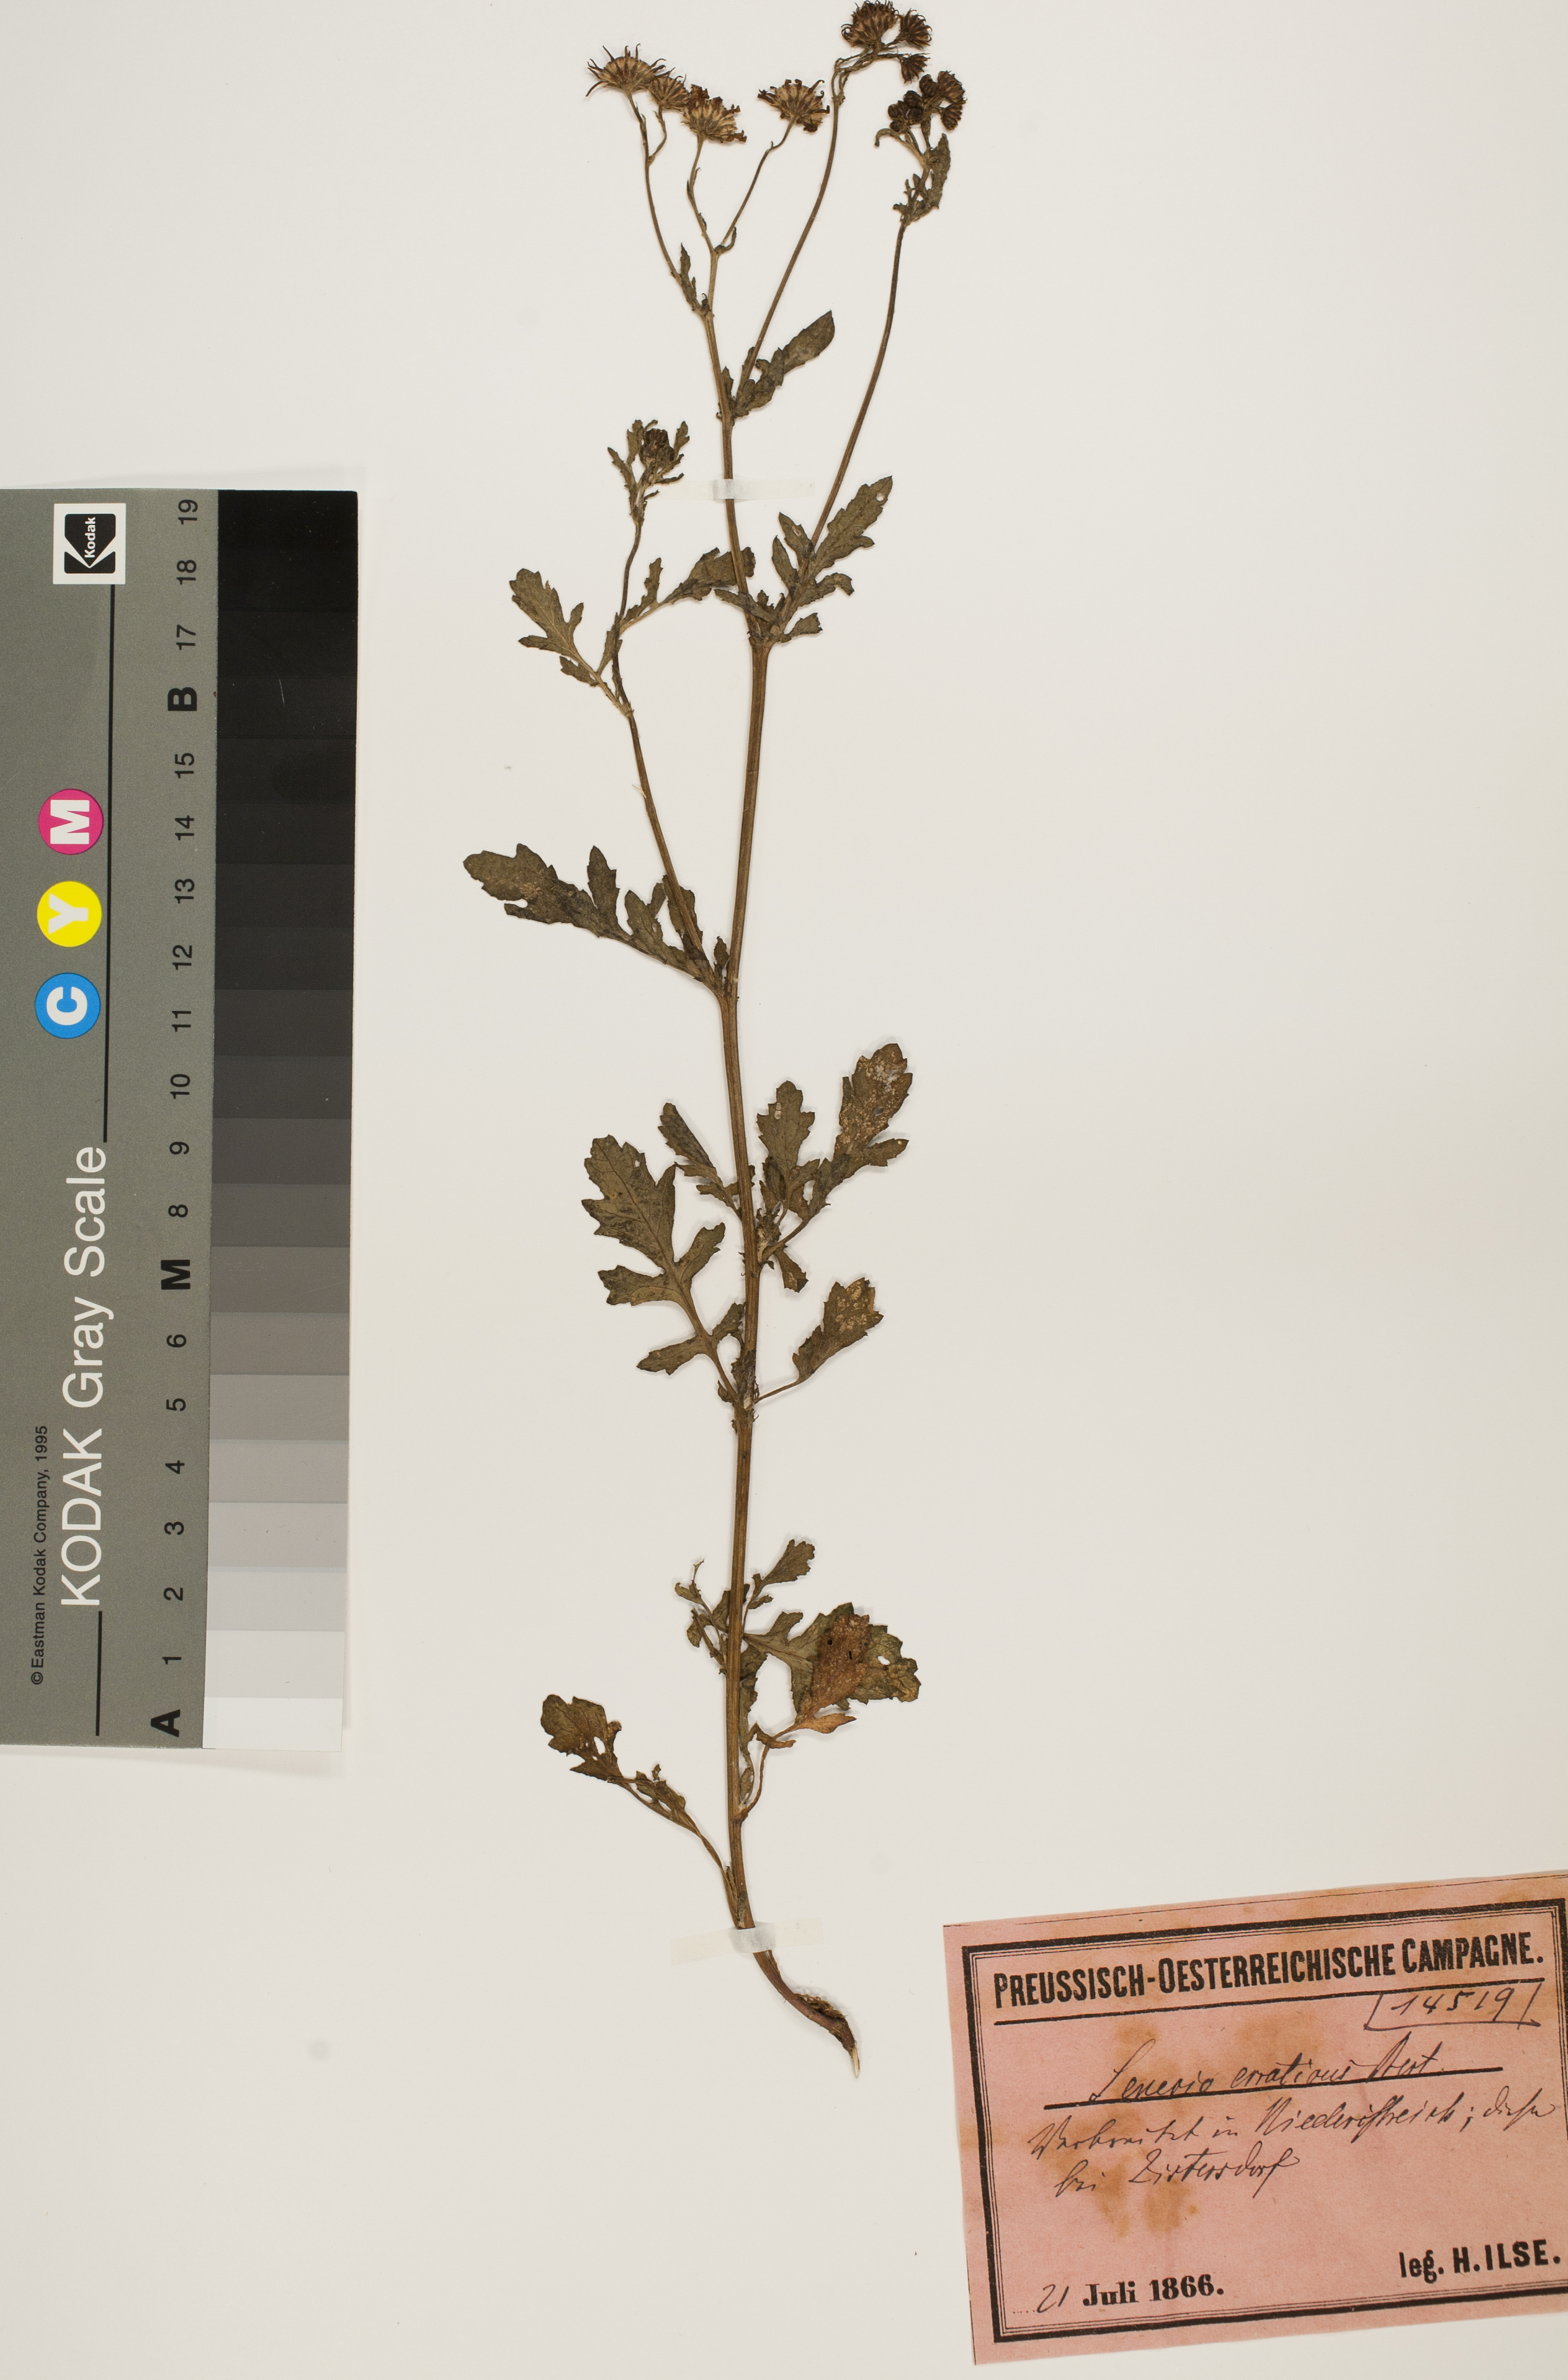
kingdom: Plantae
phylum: Tracheophyta
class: Magnoliopsida
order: Asterales
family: Asteraceae
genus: Jacobaea
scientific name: Jacobaea erratica
